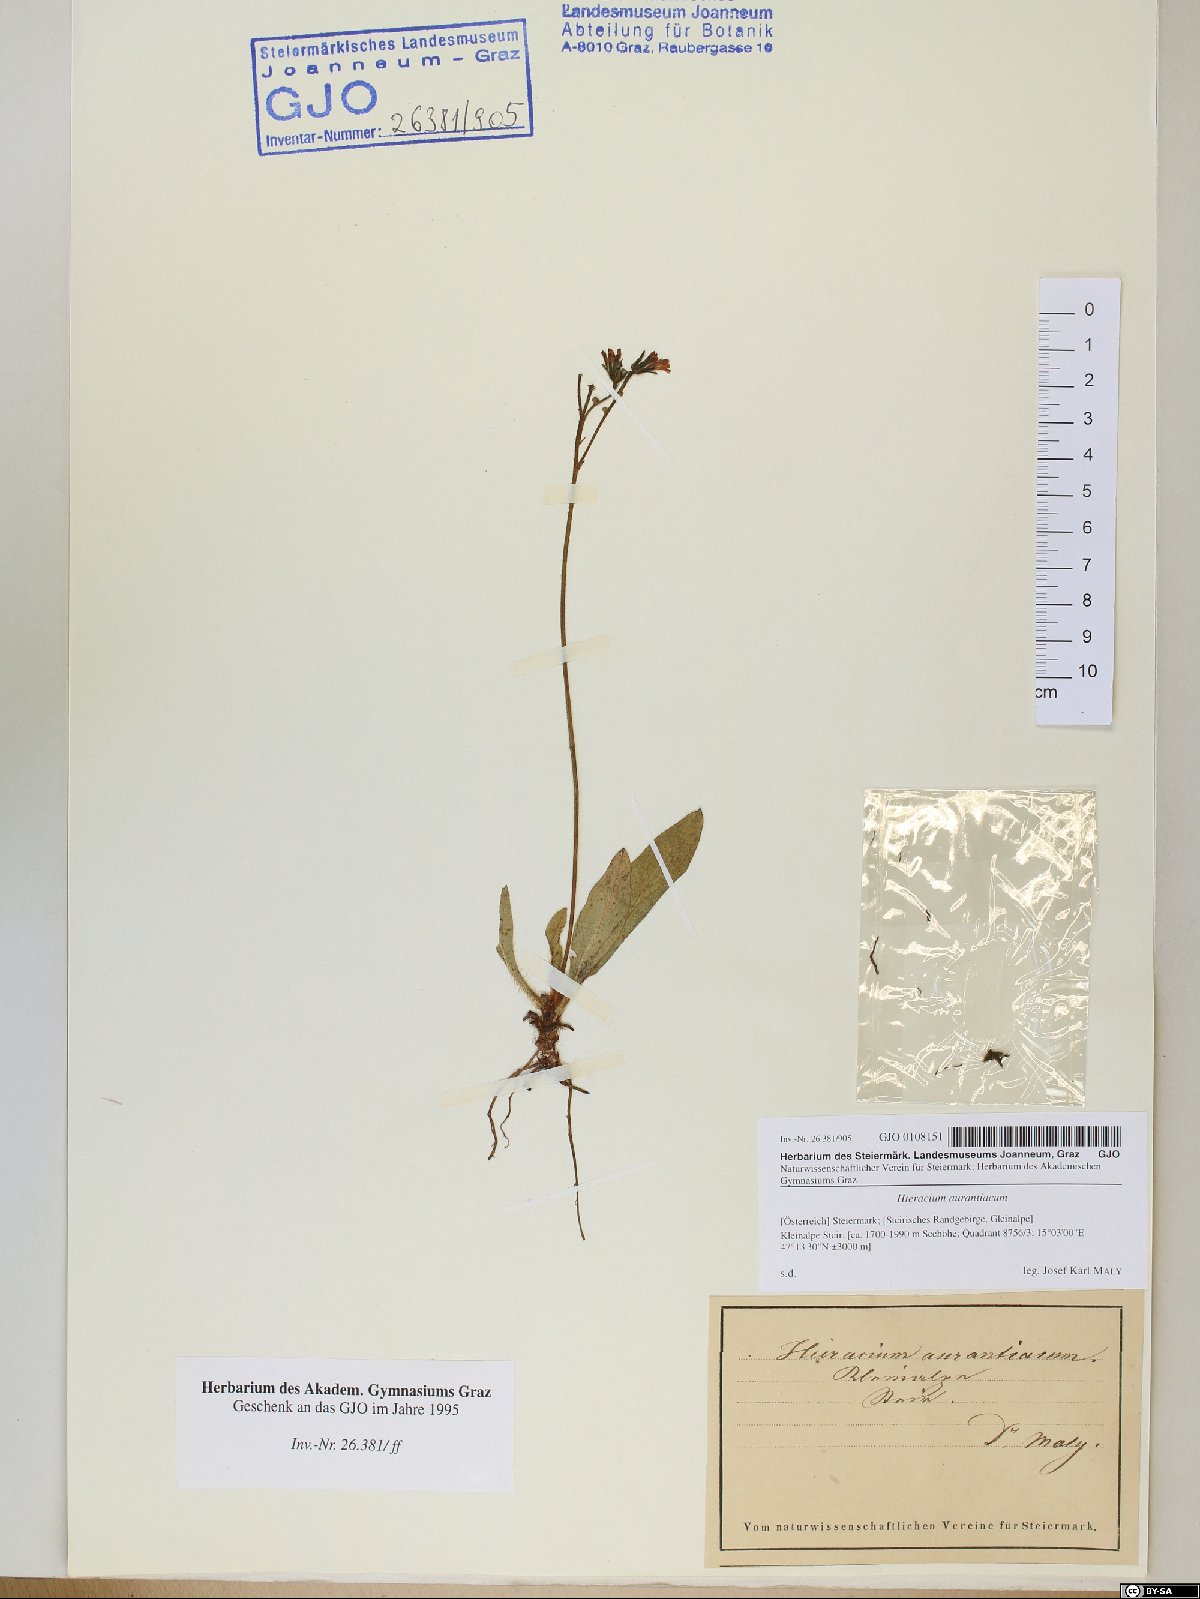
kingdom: Plantae
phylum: Tracheophyta
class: Magnoliopsida
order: Asterales
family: Asteraceae
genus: Pilosella
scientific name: Pilosella aurantiaca
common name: Fox-and-cubs
